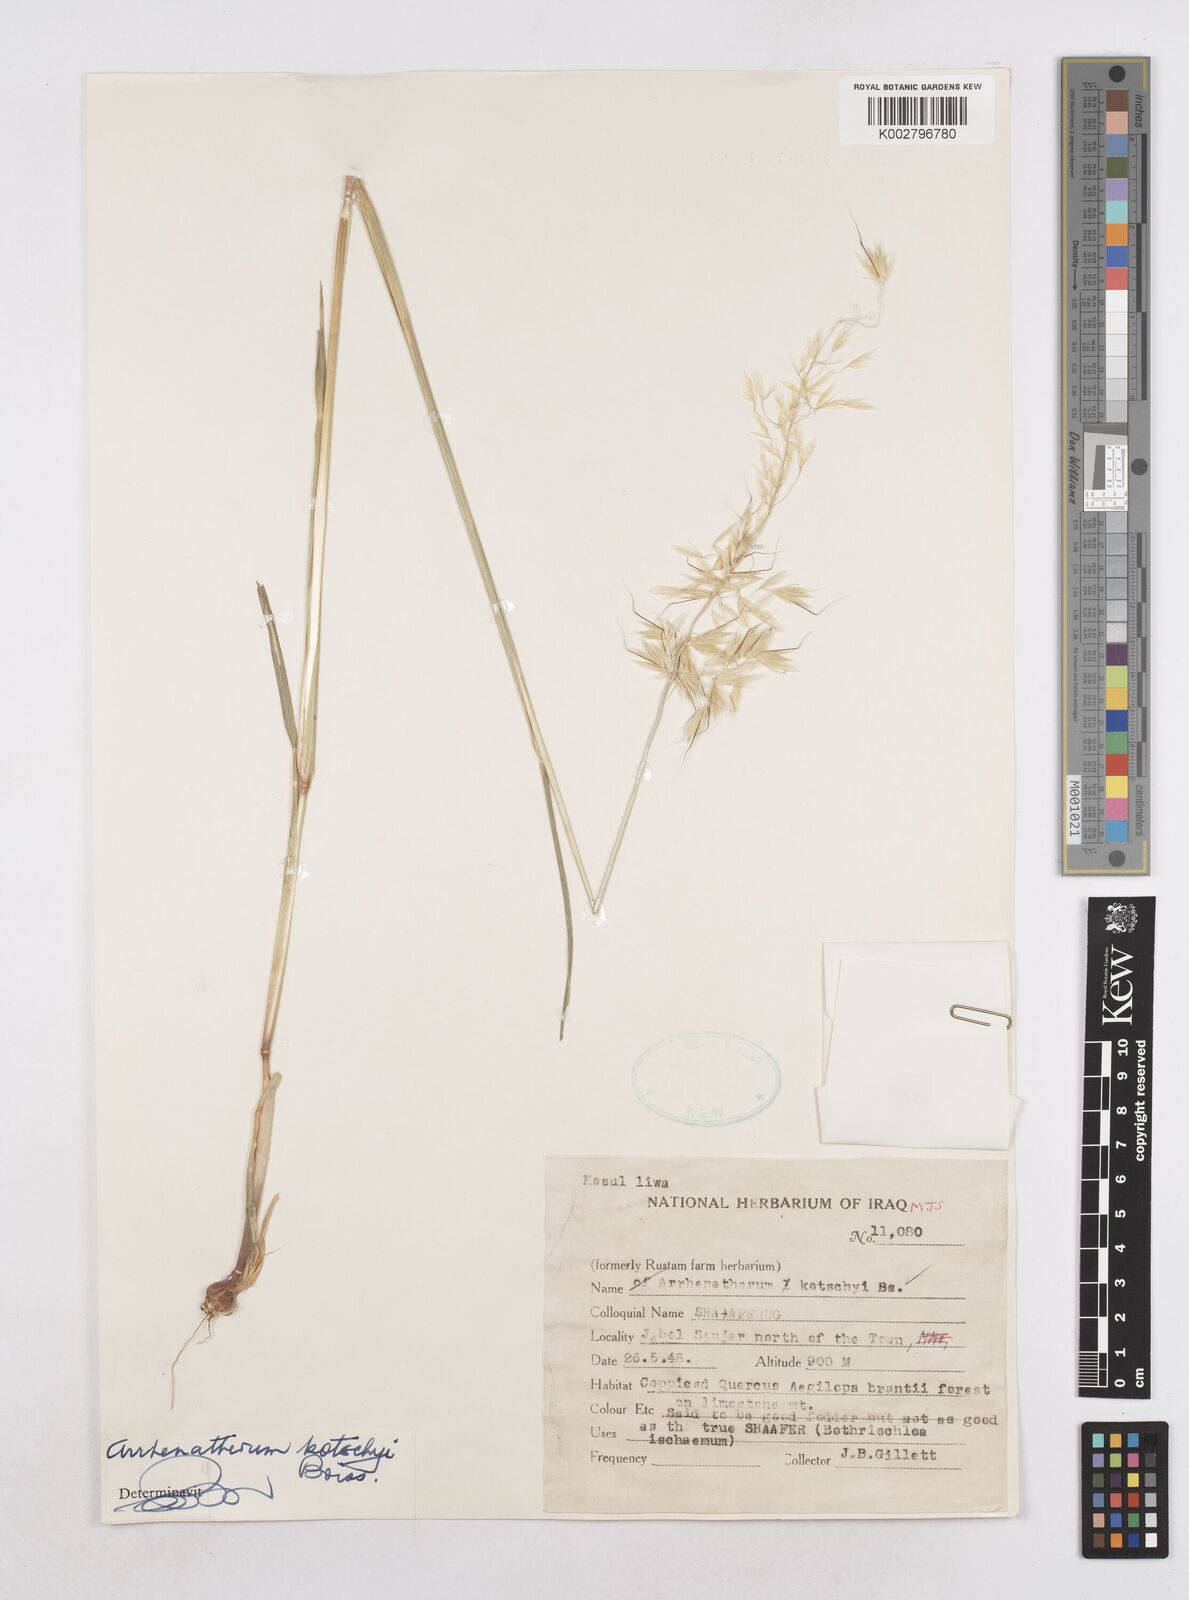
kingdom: Plantae
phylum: Tracheophyta
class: Liliopsida
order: Poales
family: Poaceae
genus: Arrhenatherum
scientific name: Arrhenatherum kotschyi
